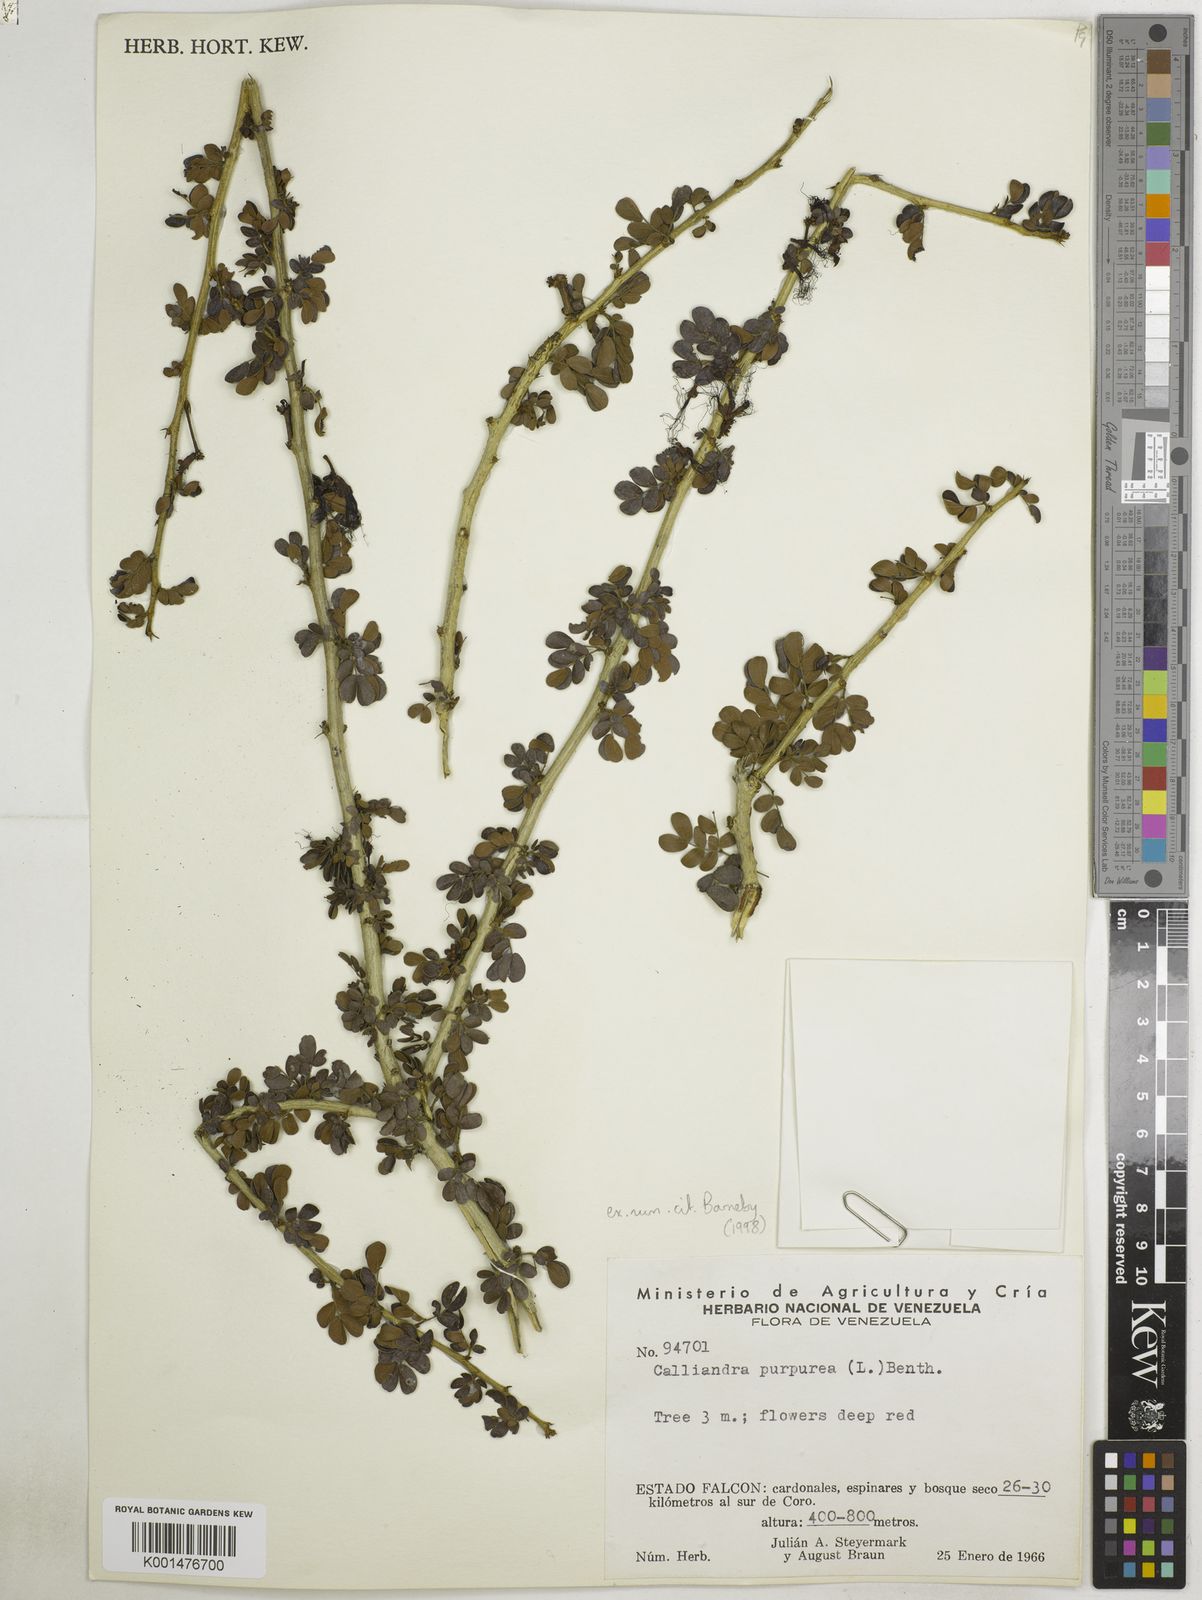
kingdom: Plantae
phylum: Tracheophyta
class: Magnoliopsida
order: Fabales
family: Fabaceae
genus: Calliandra
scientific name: Calliandra purpurea
